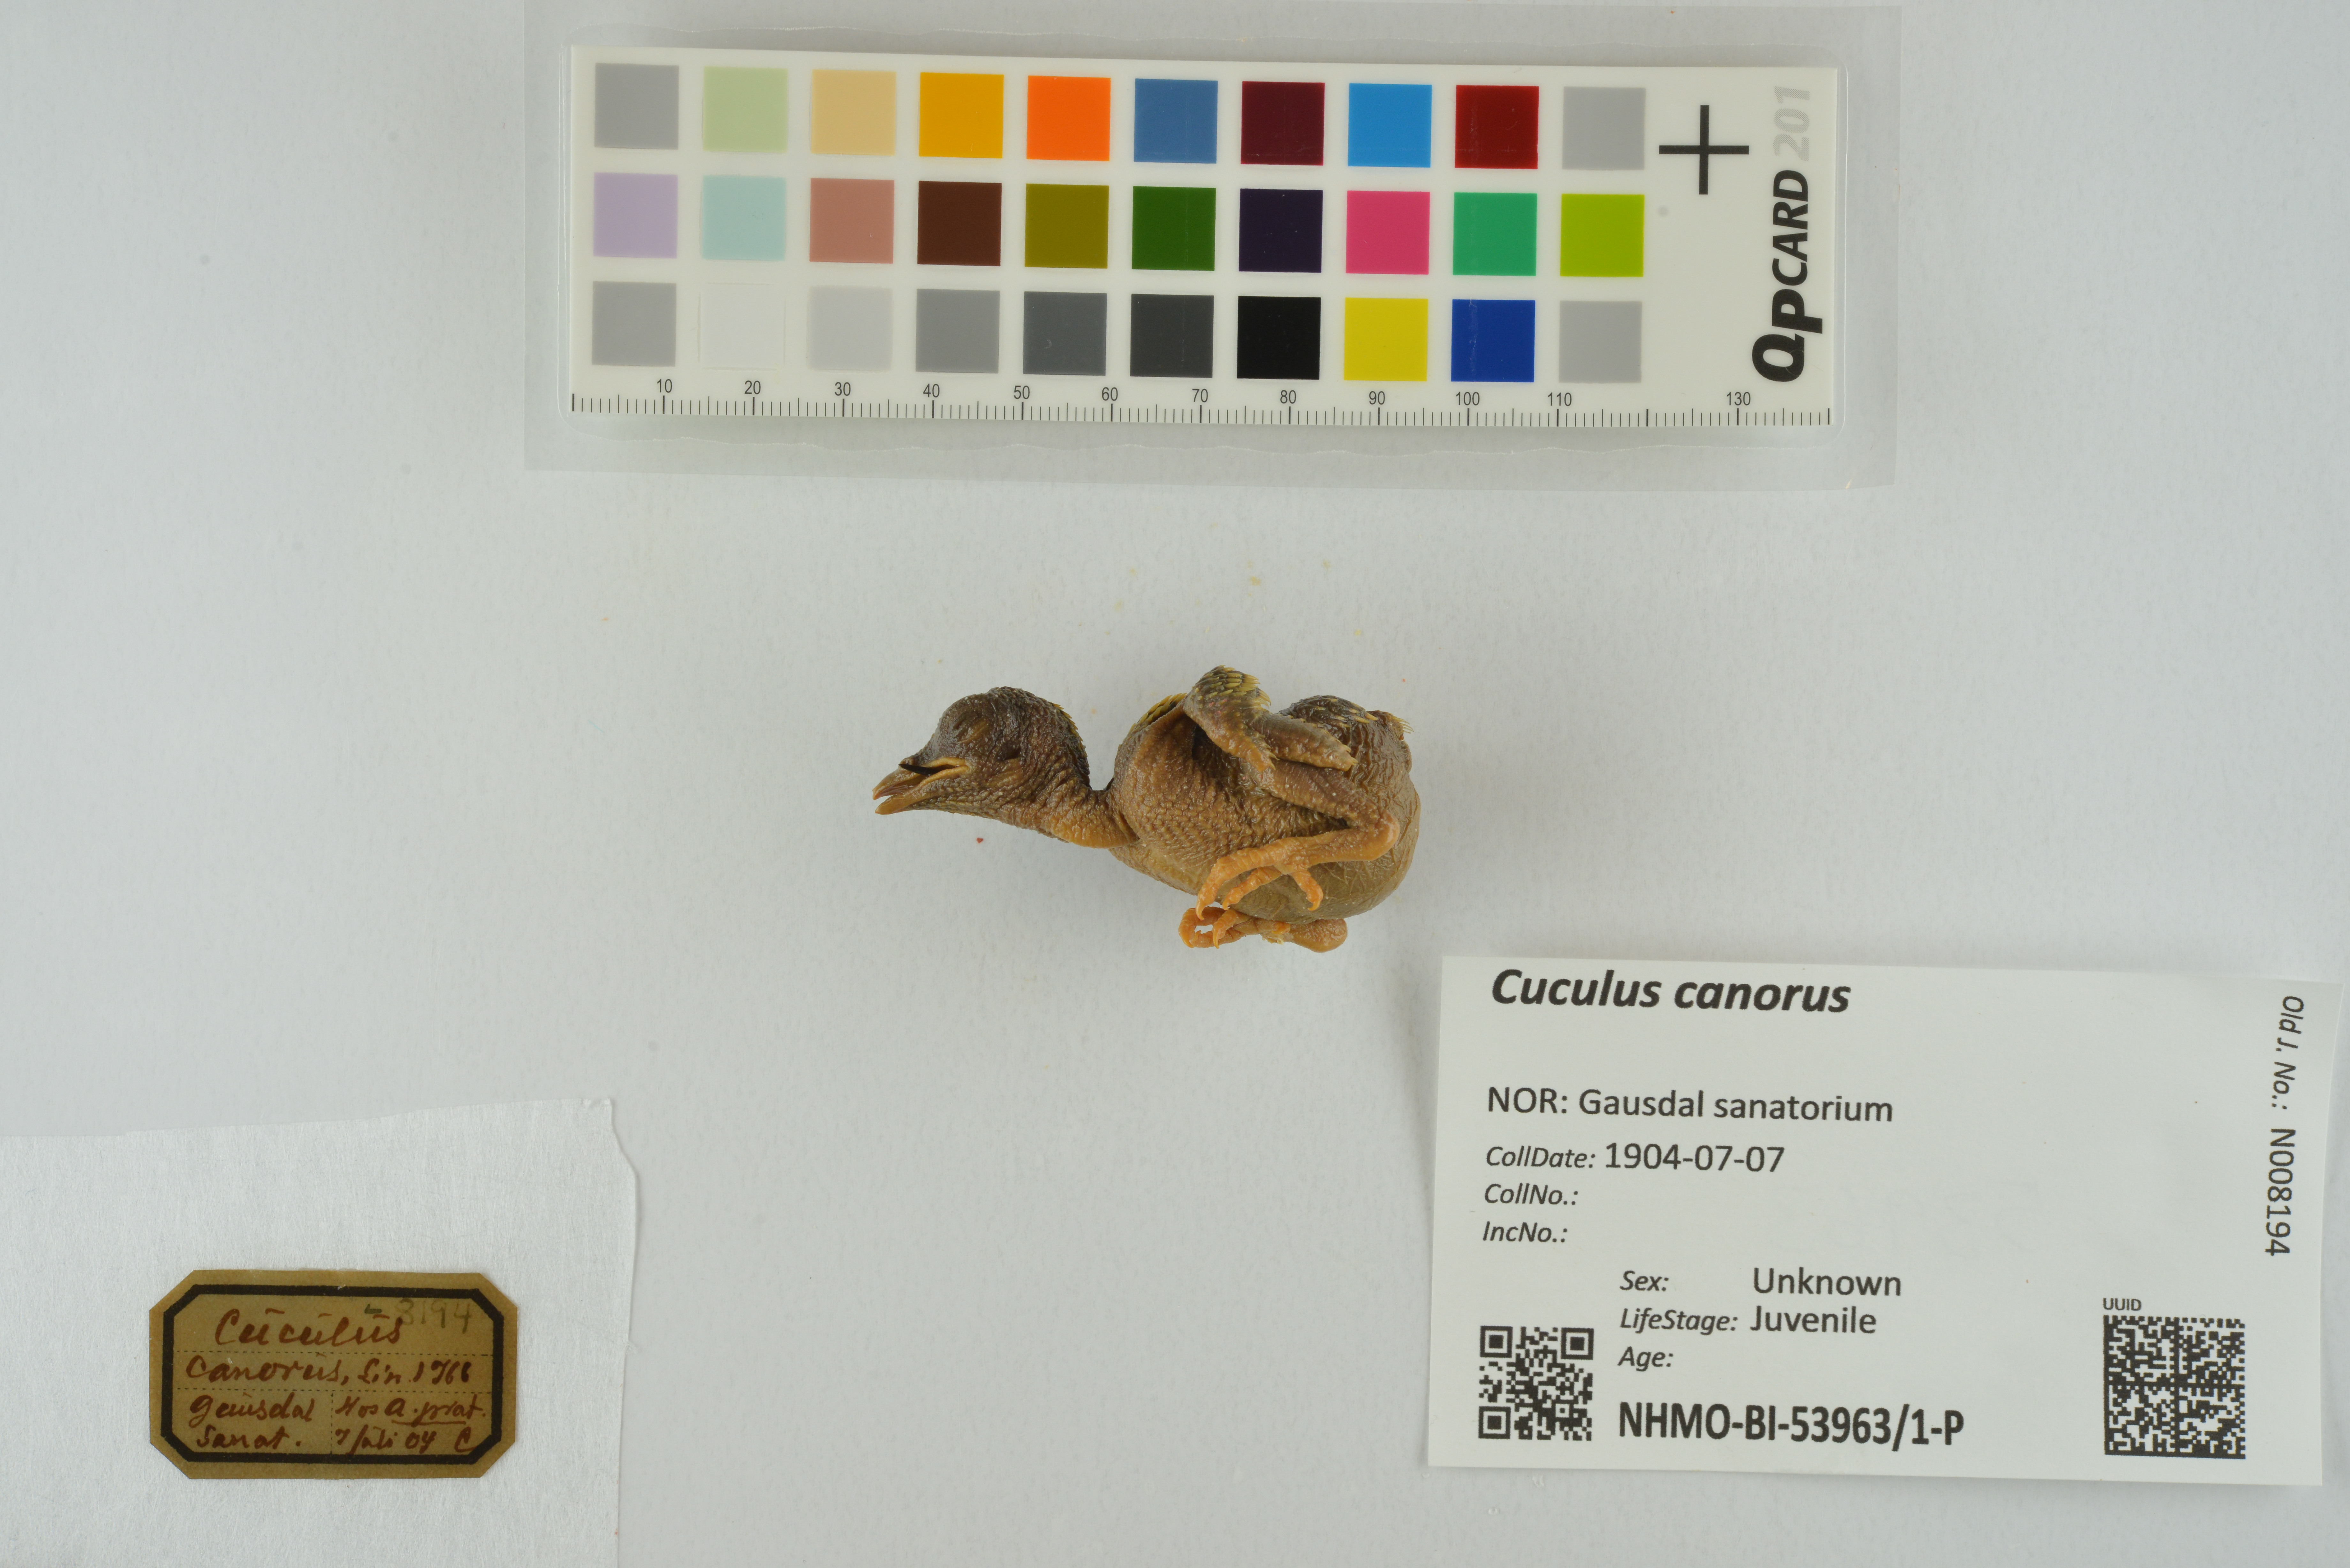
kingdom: Animalia
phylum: Chordata
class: Aves
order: Cuculiformes
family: Cuculidae
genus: Cuculus
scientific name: Cuculus canorus
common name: Common cuckoo
